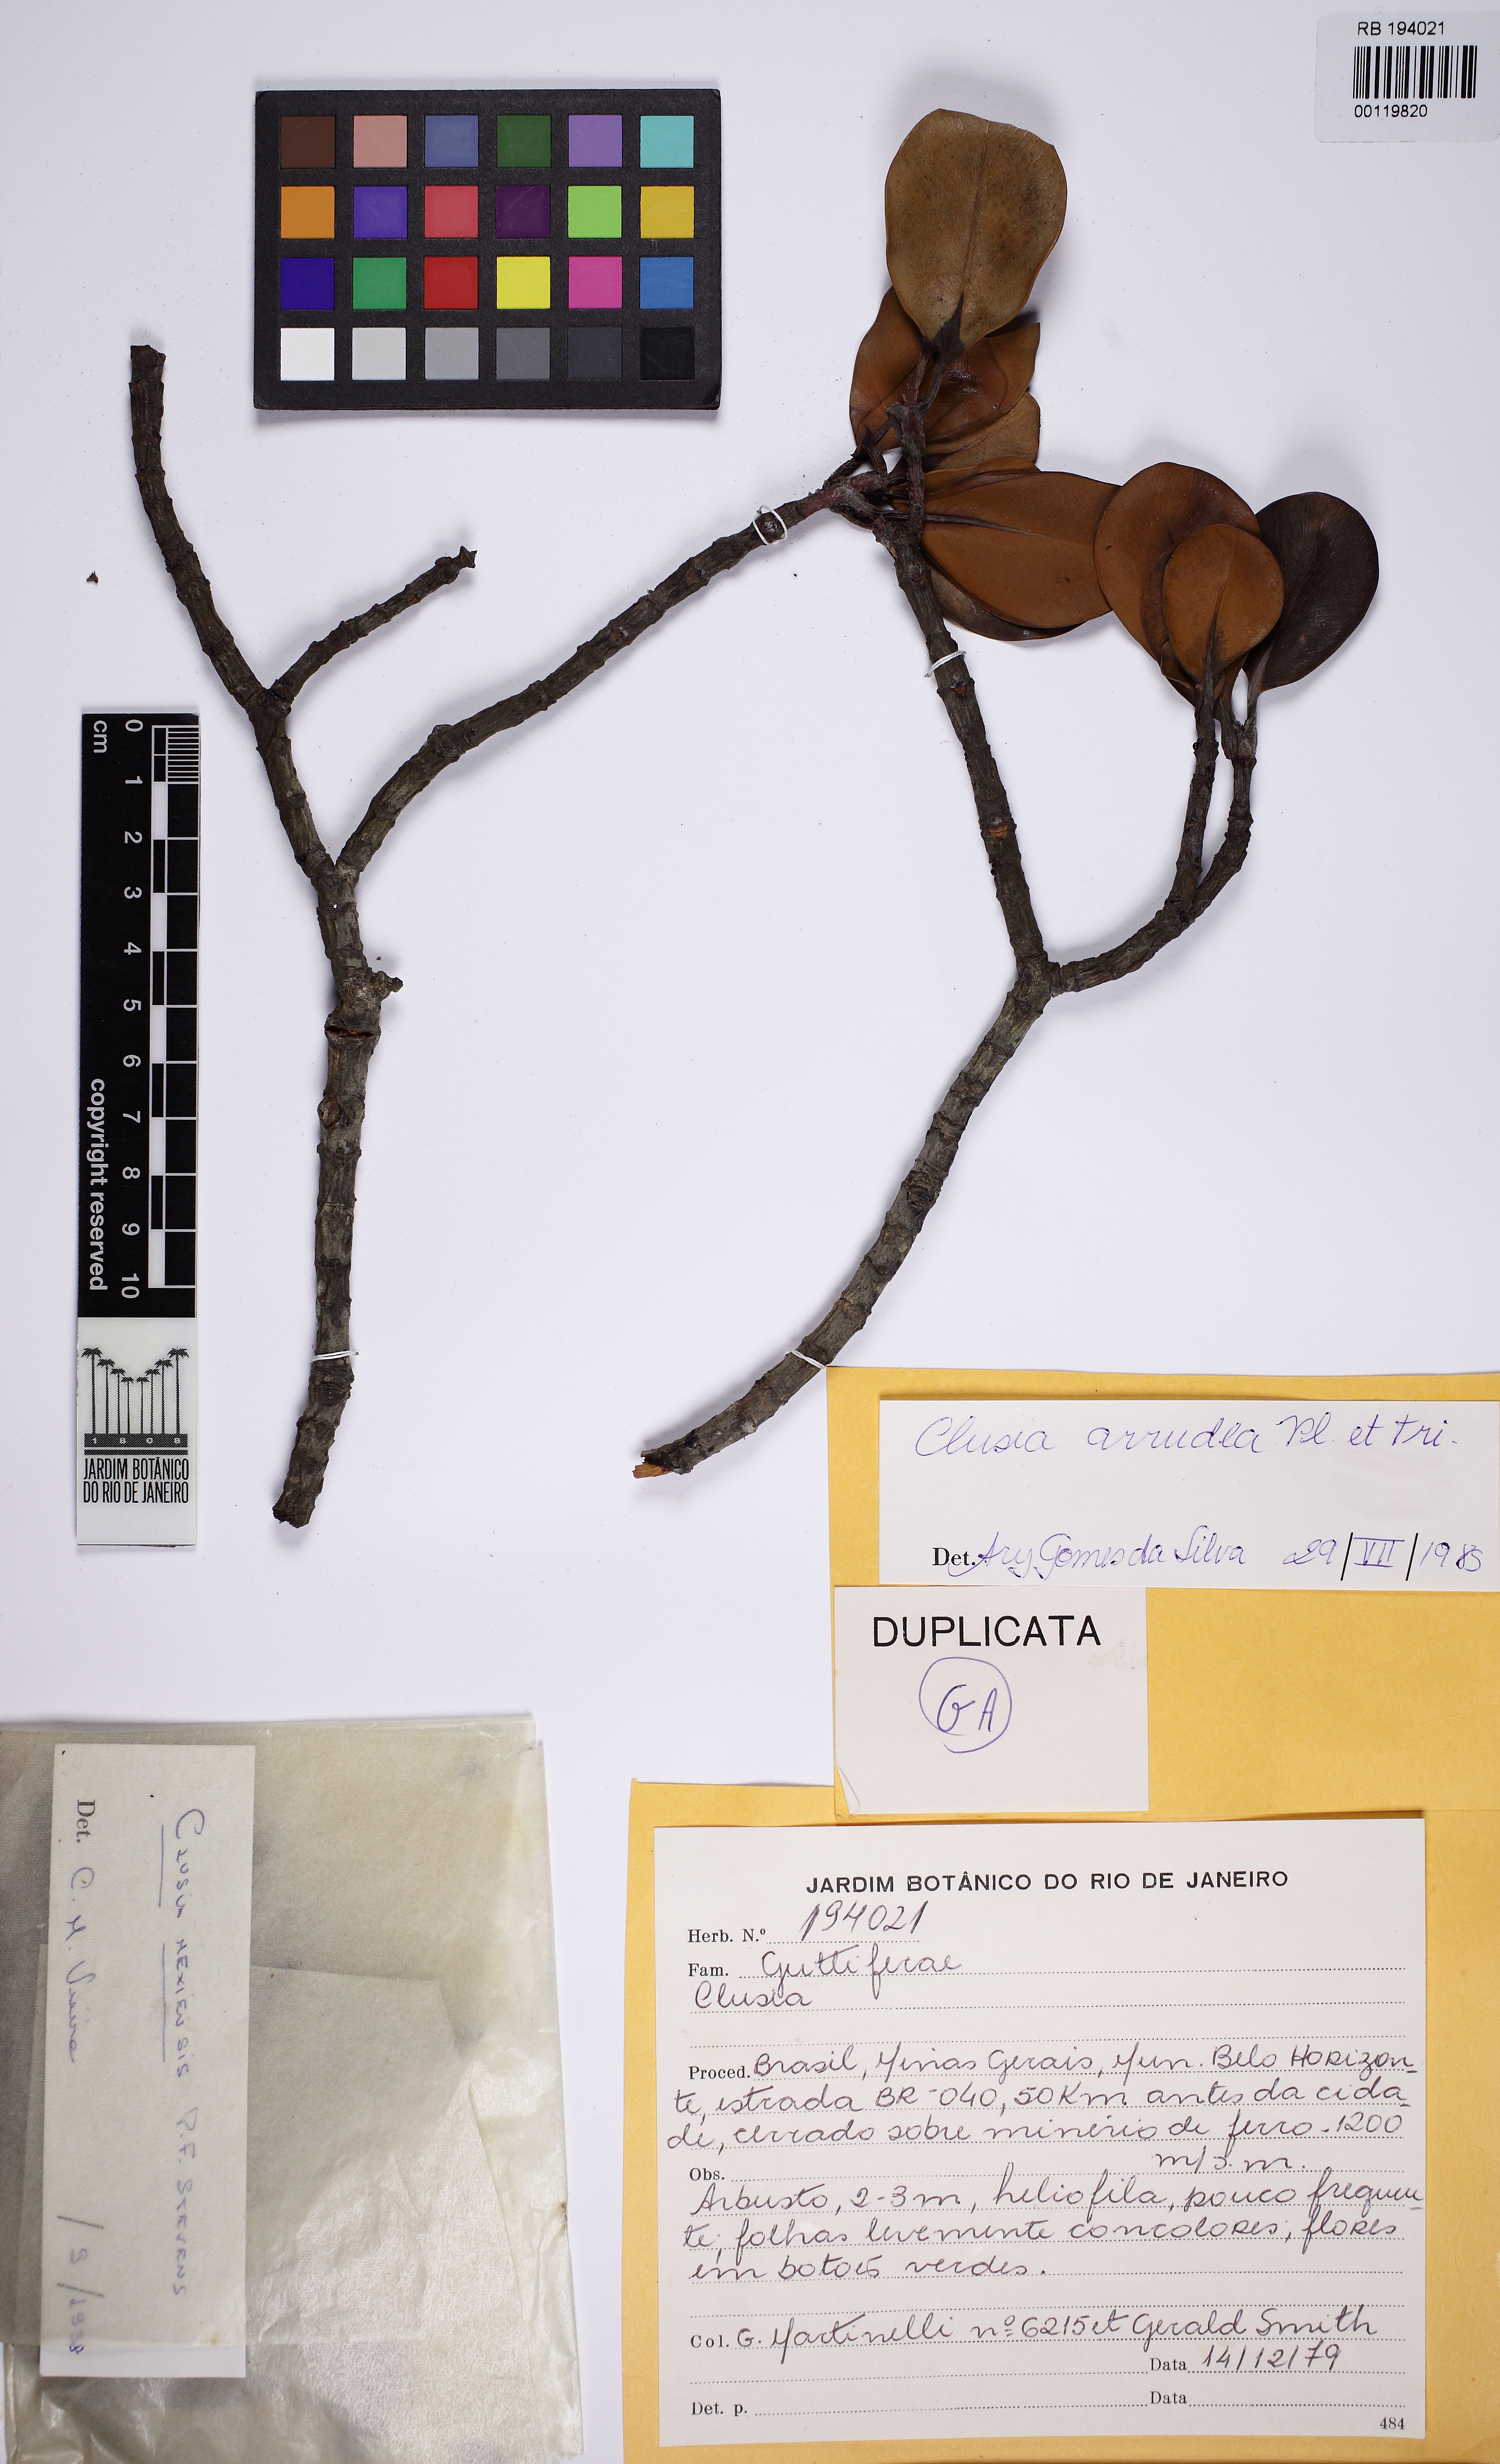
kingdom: Plantae
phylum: Tracheophyta
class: Magnoliopsida
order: Malpighiales
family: Clusiaceae
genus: Clusia
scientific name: Clusia mexiae
